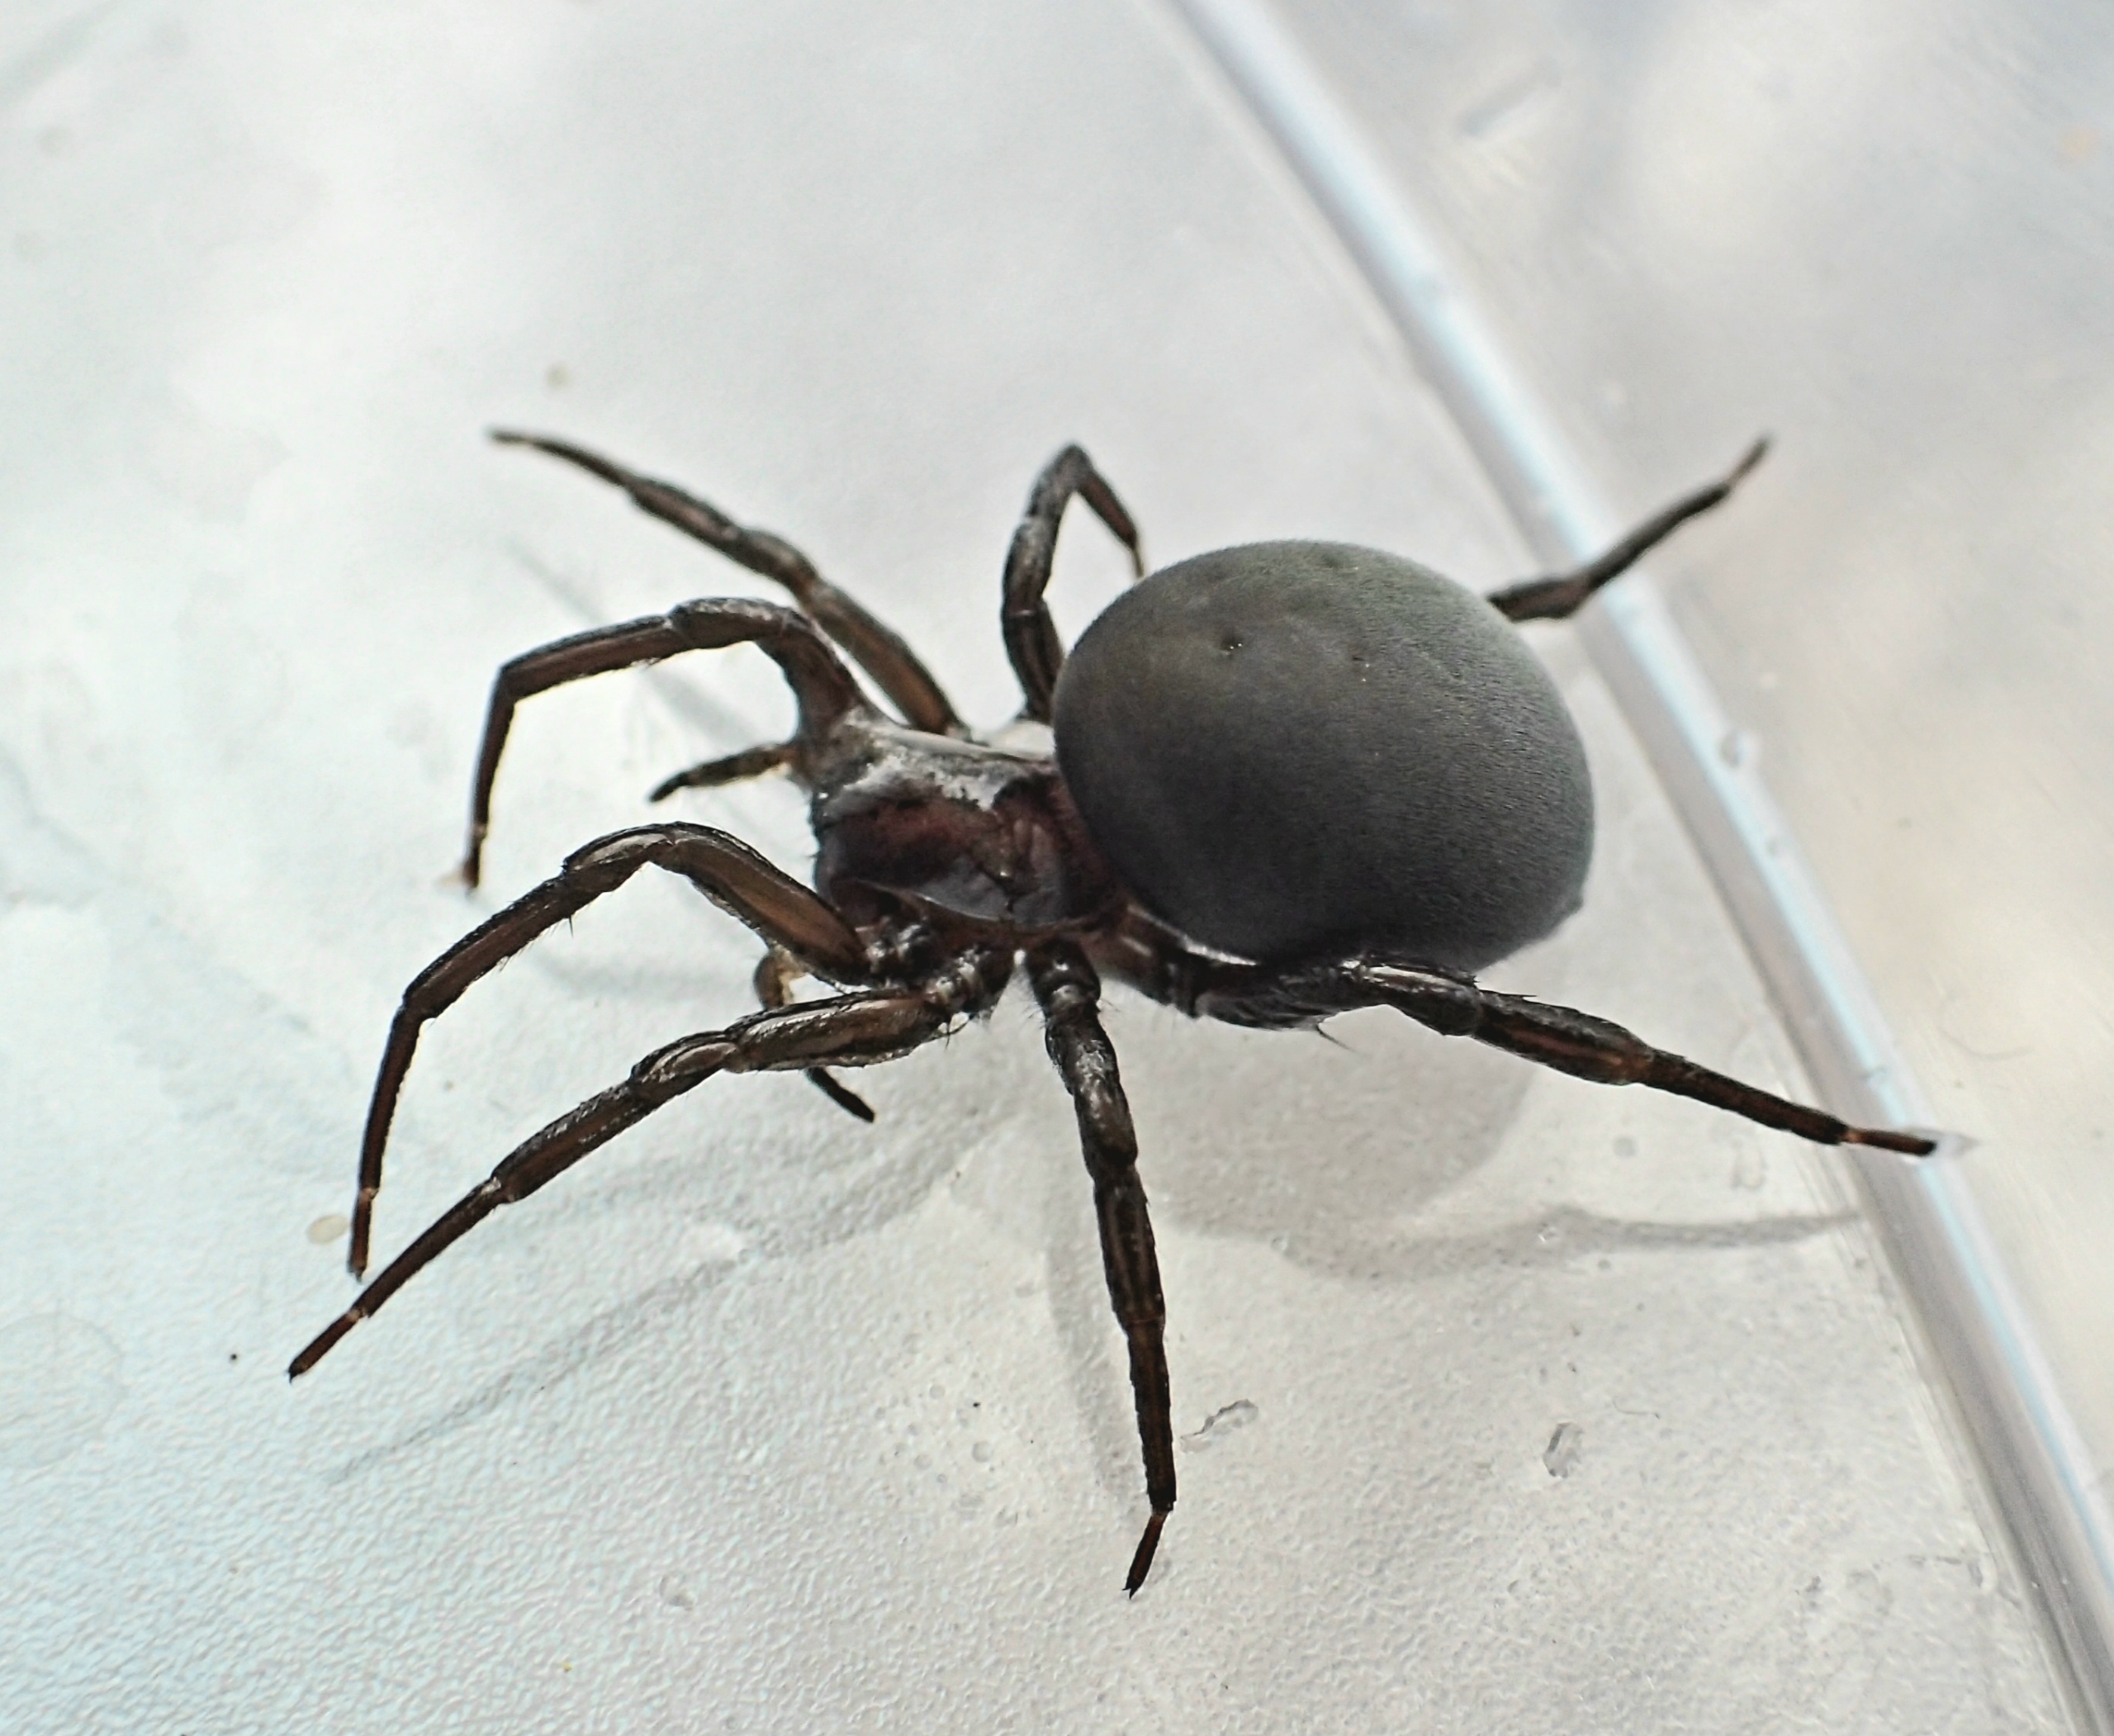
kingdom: Animalia
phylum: Arthropoda
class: Arachnida
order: Araneae
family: Dictynidae
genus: Argyroneta
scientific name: Argyroneta aquatica
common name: Vandedderkop
